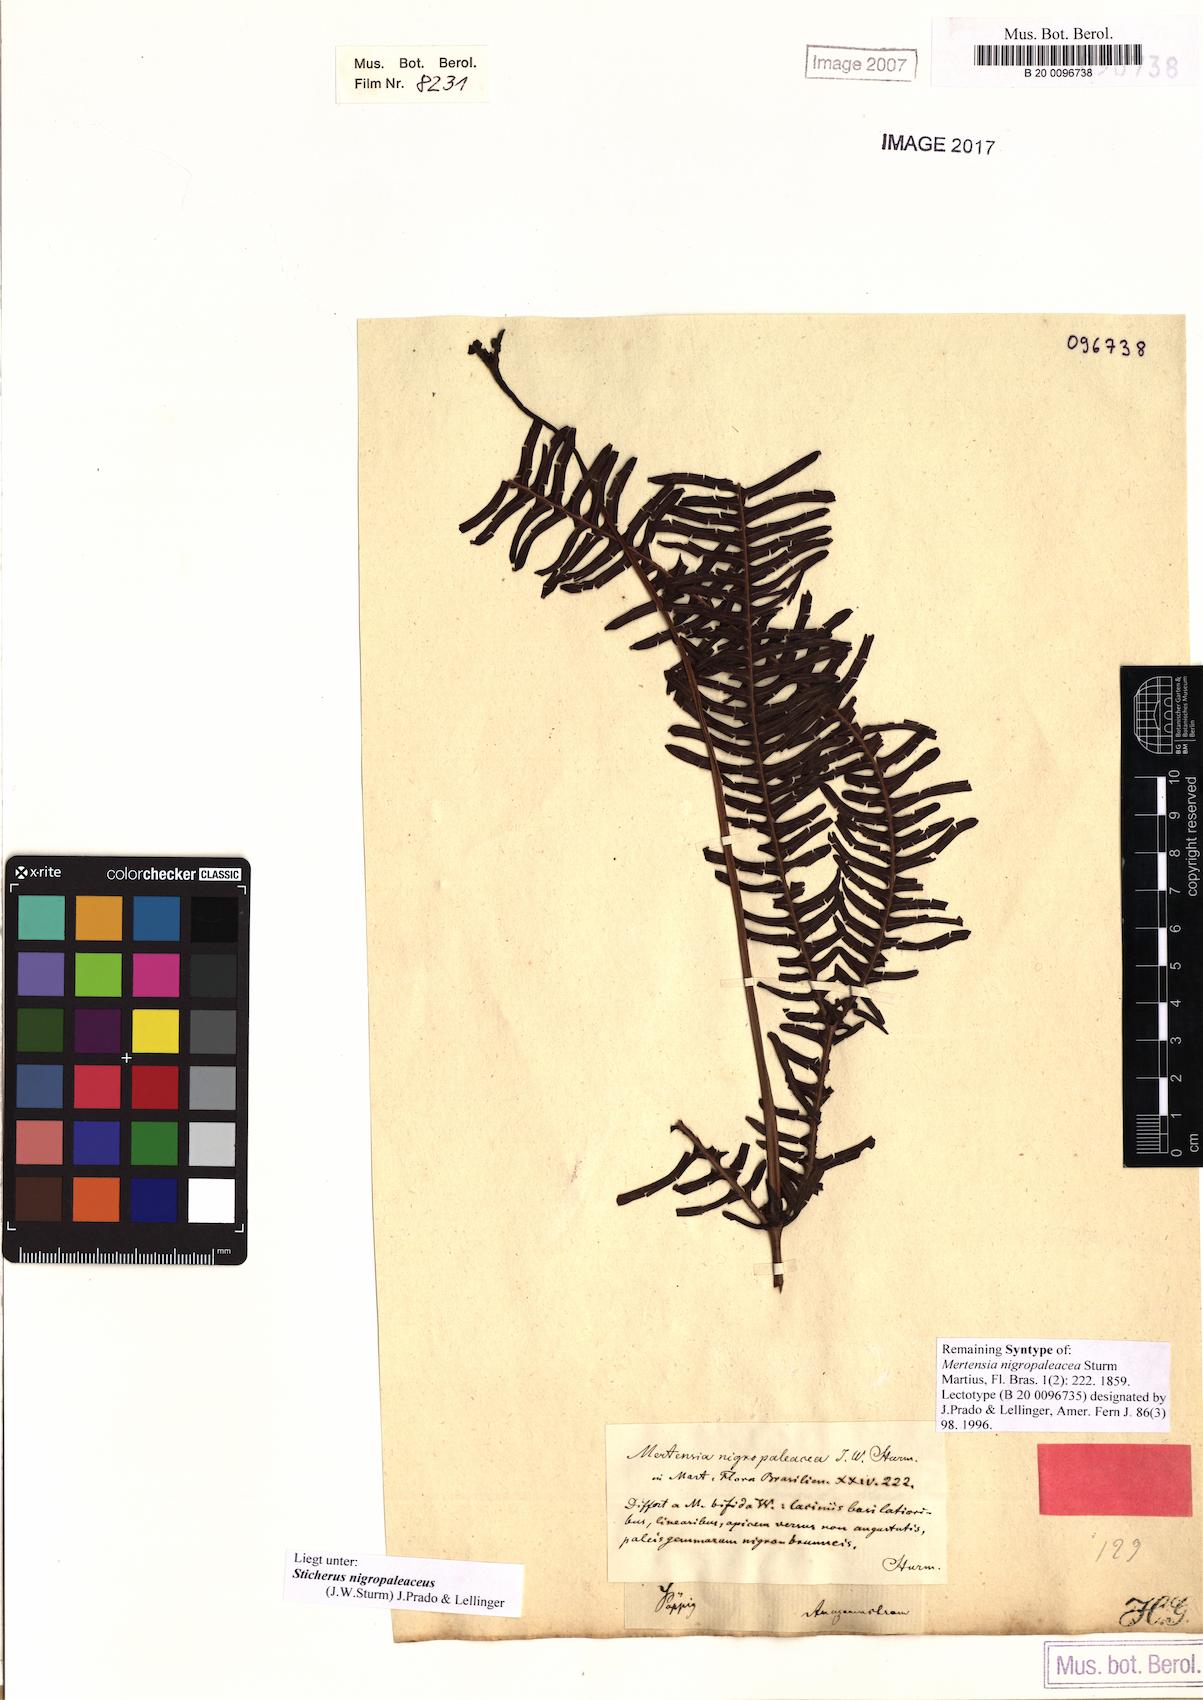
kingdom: Plantae
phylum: Tracheophyta
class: Polypodiopsida
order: Gleicheniales
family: Gleicheniaceae
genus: Sticherus
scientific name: Sticherus nigropaleaceus
